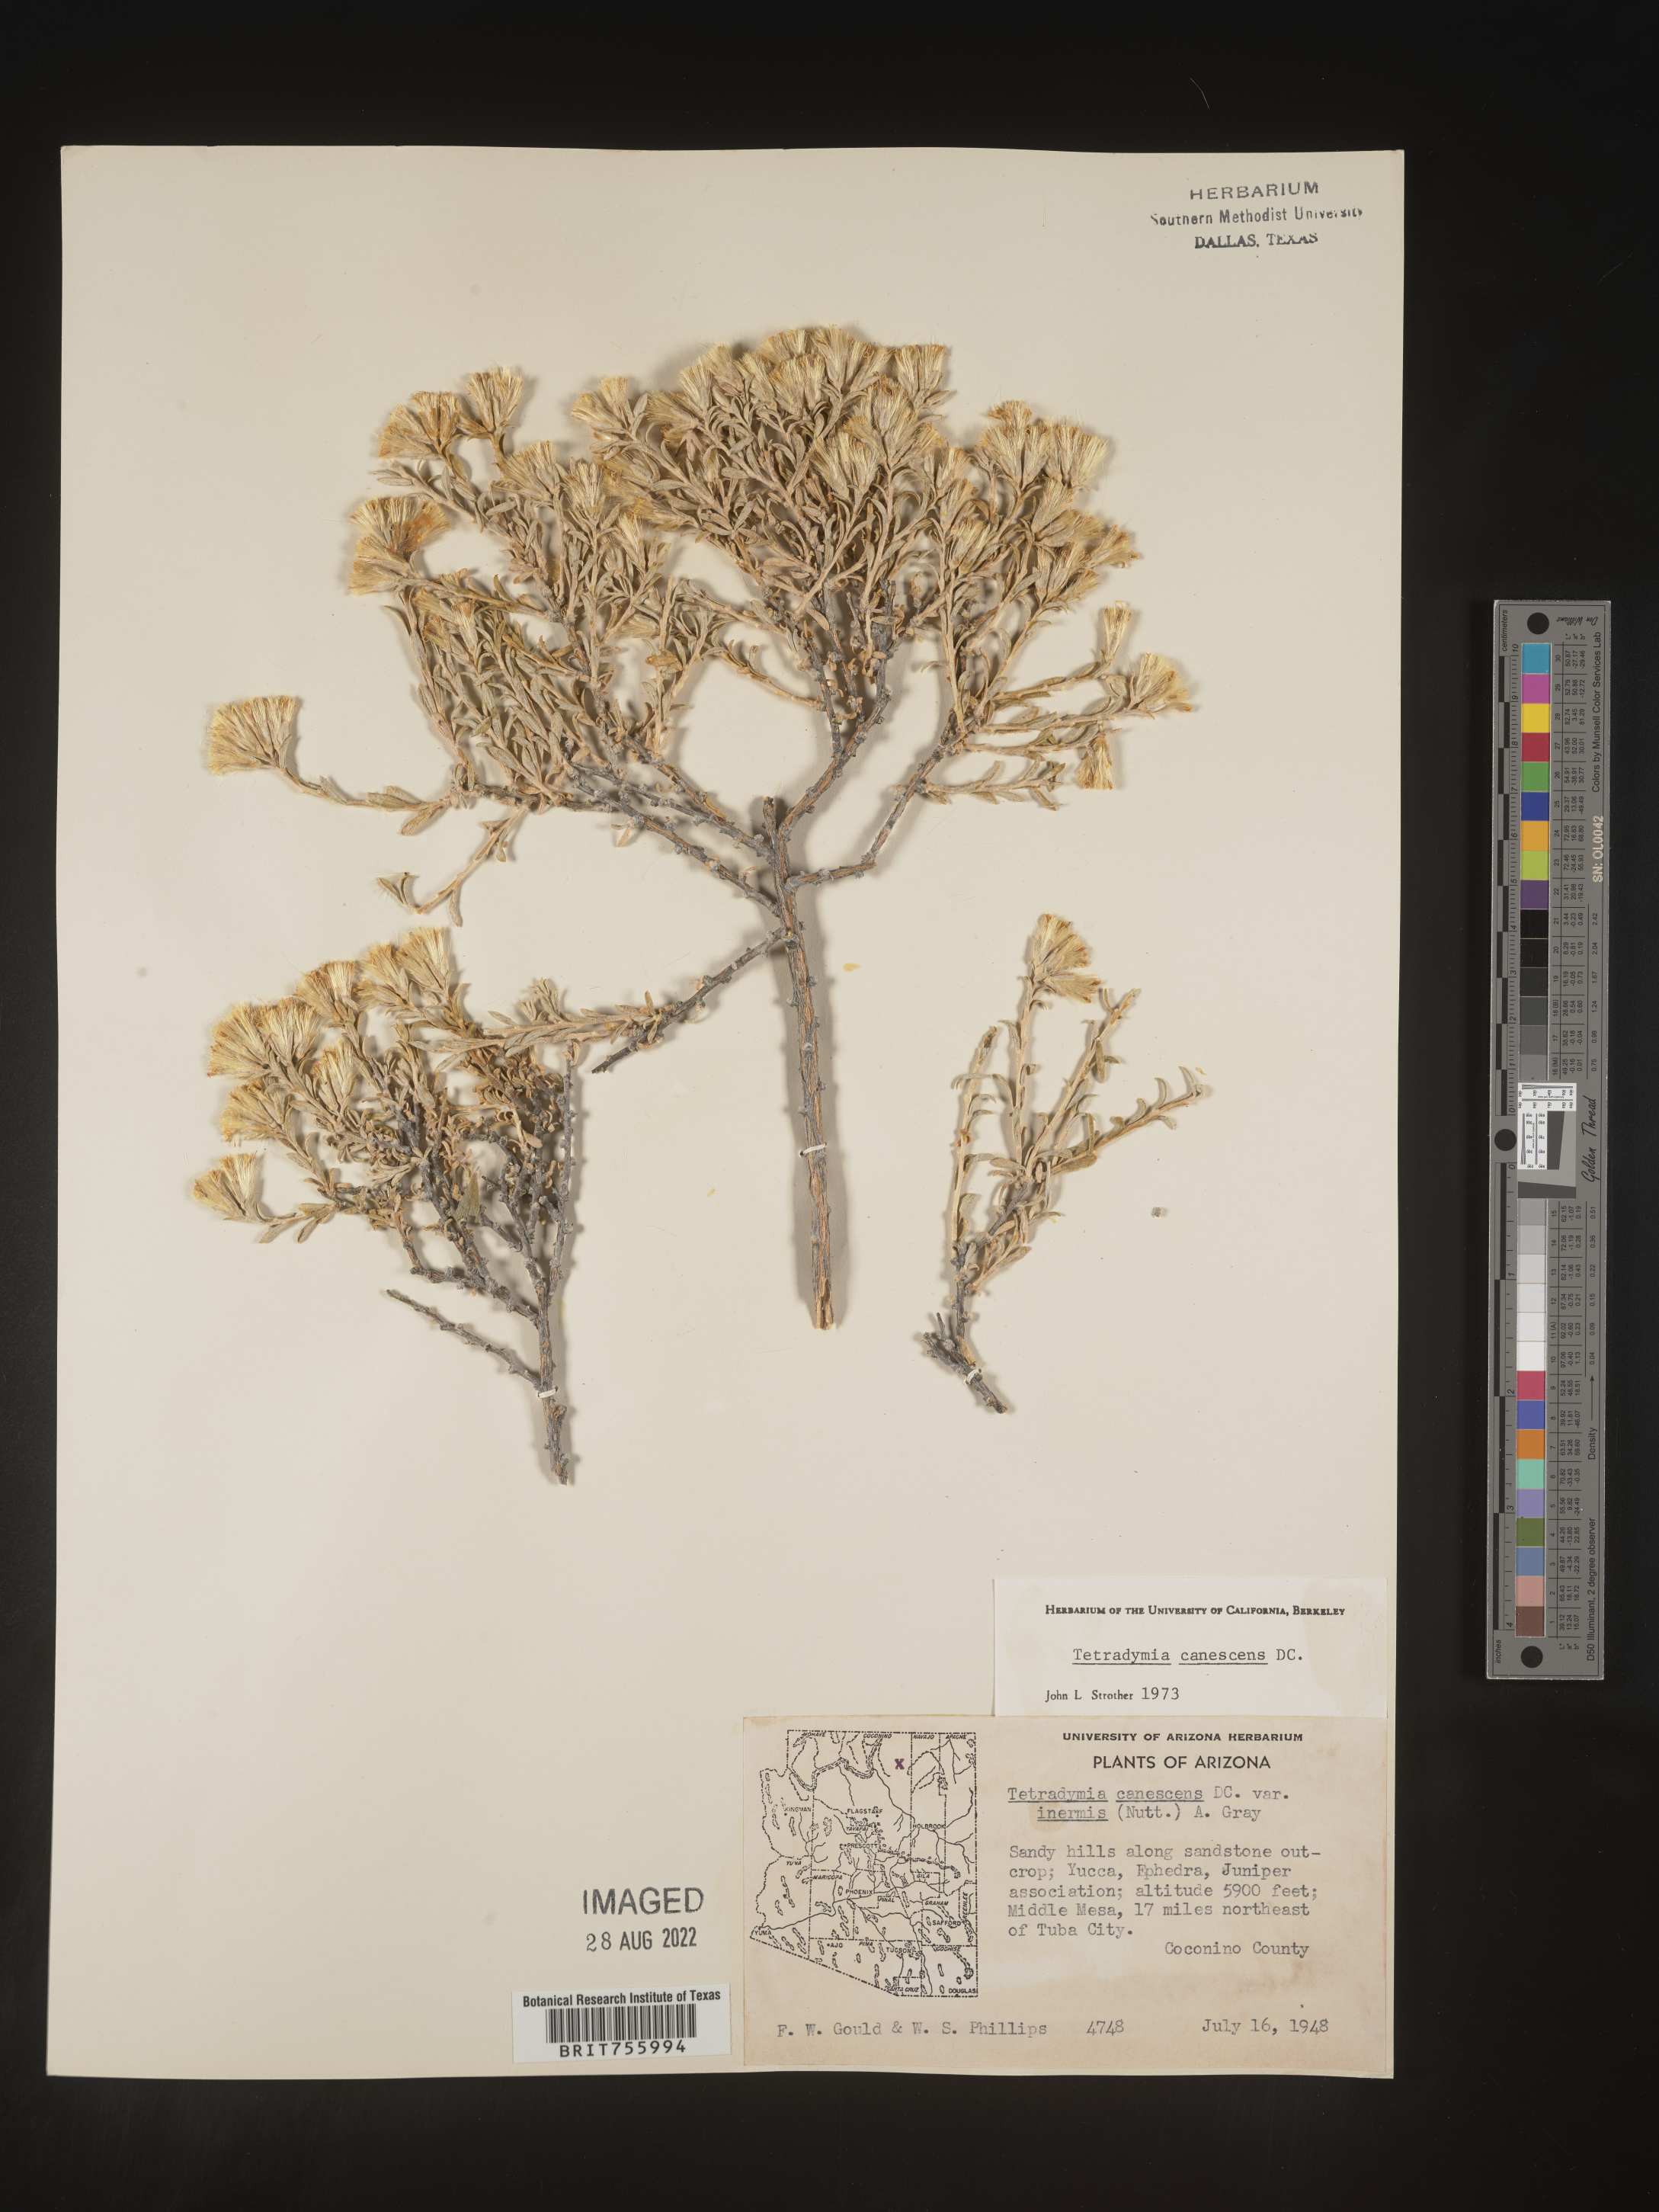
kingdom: Plantae
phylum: Tracheophyta
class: Magnoliopsida
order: Asterales
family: Asteraceae
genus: Tetradymia
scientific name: Tetradymia canescens
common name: Spineless horsebrush
